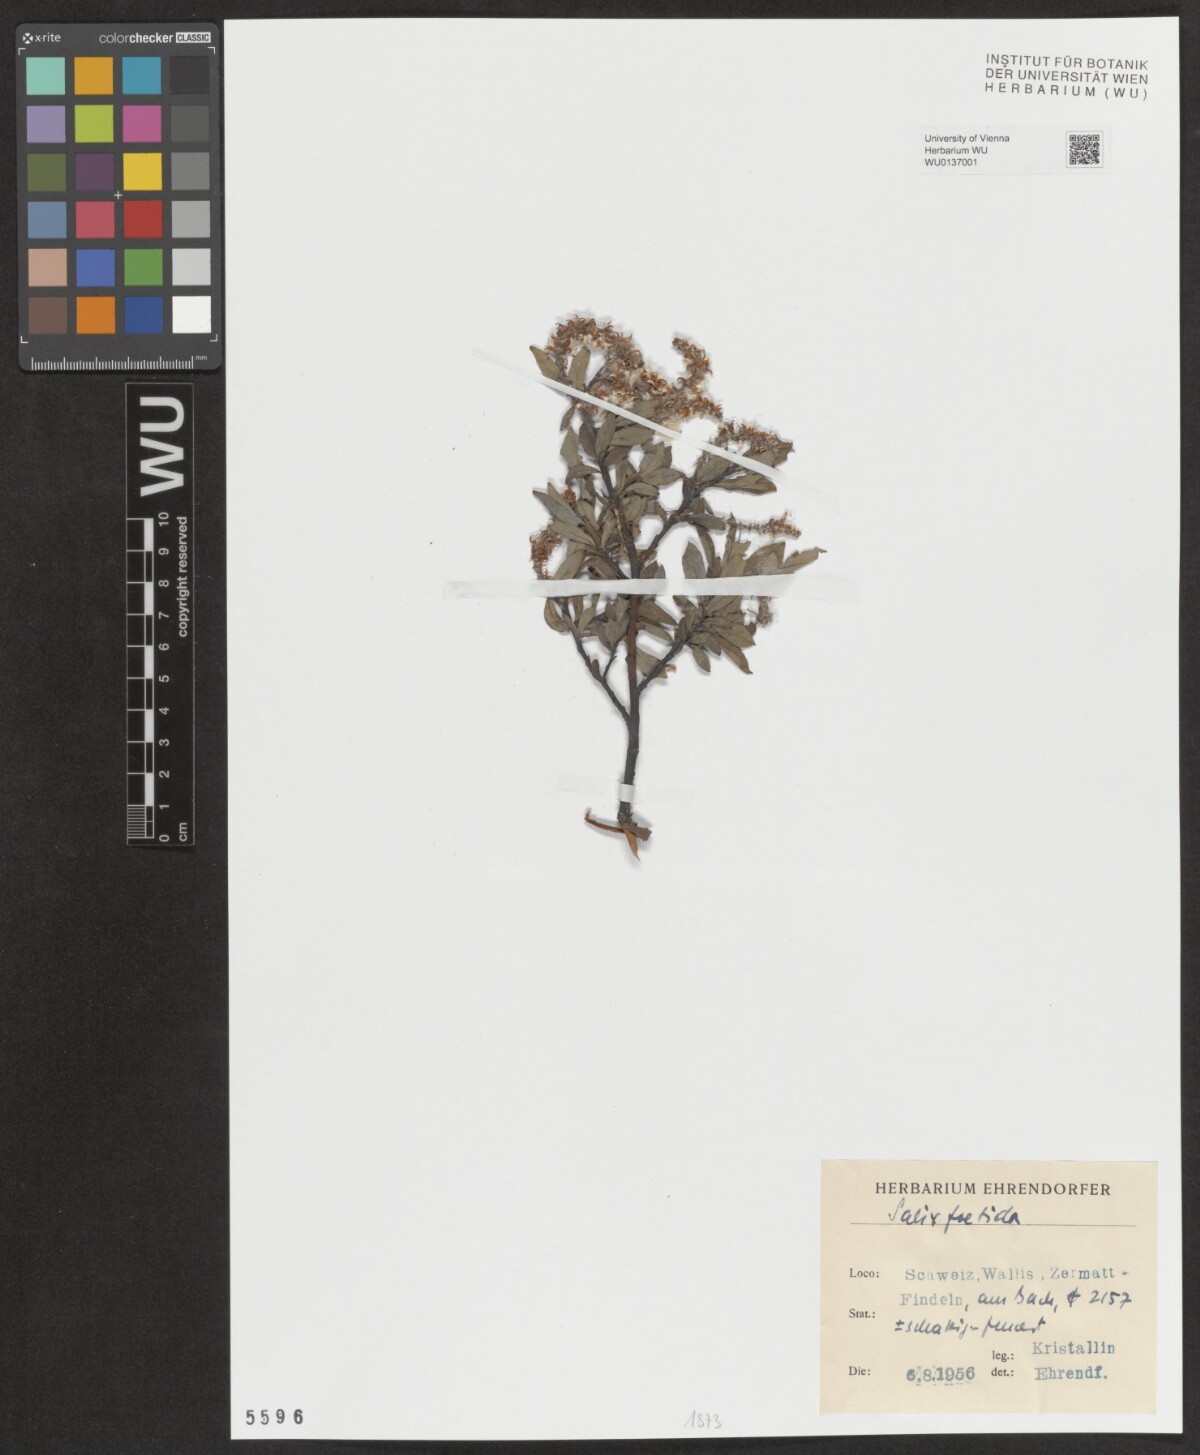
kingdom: Plantae
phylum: Tracheophyta
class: Magnoliopsida
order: Malpighiales
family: Salicaceae
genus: Salix
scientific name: Salix foetida
